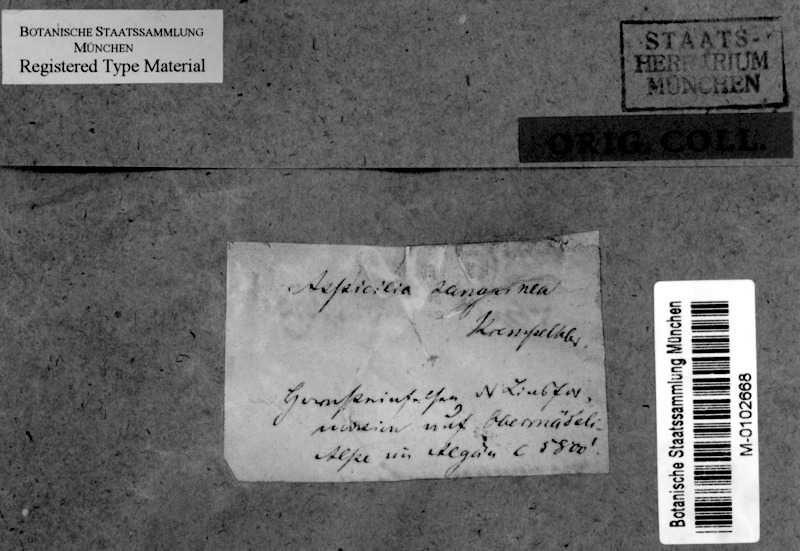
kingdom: Fungi
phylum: Ascomycota
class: Lecanoromycetes
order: Lecideales
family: Lecideaceae
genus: Bellemerea
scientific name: Bellemerea sanguinea
